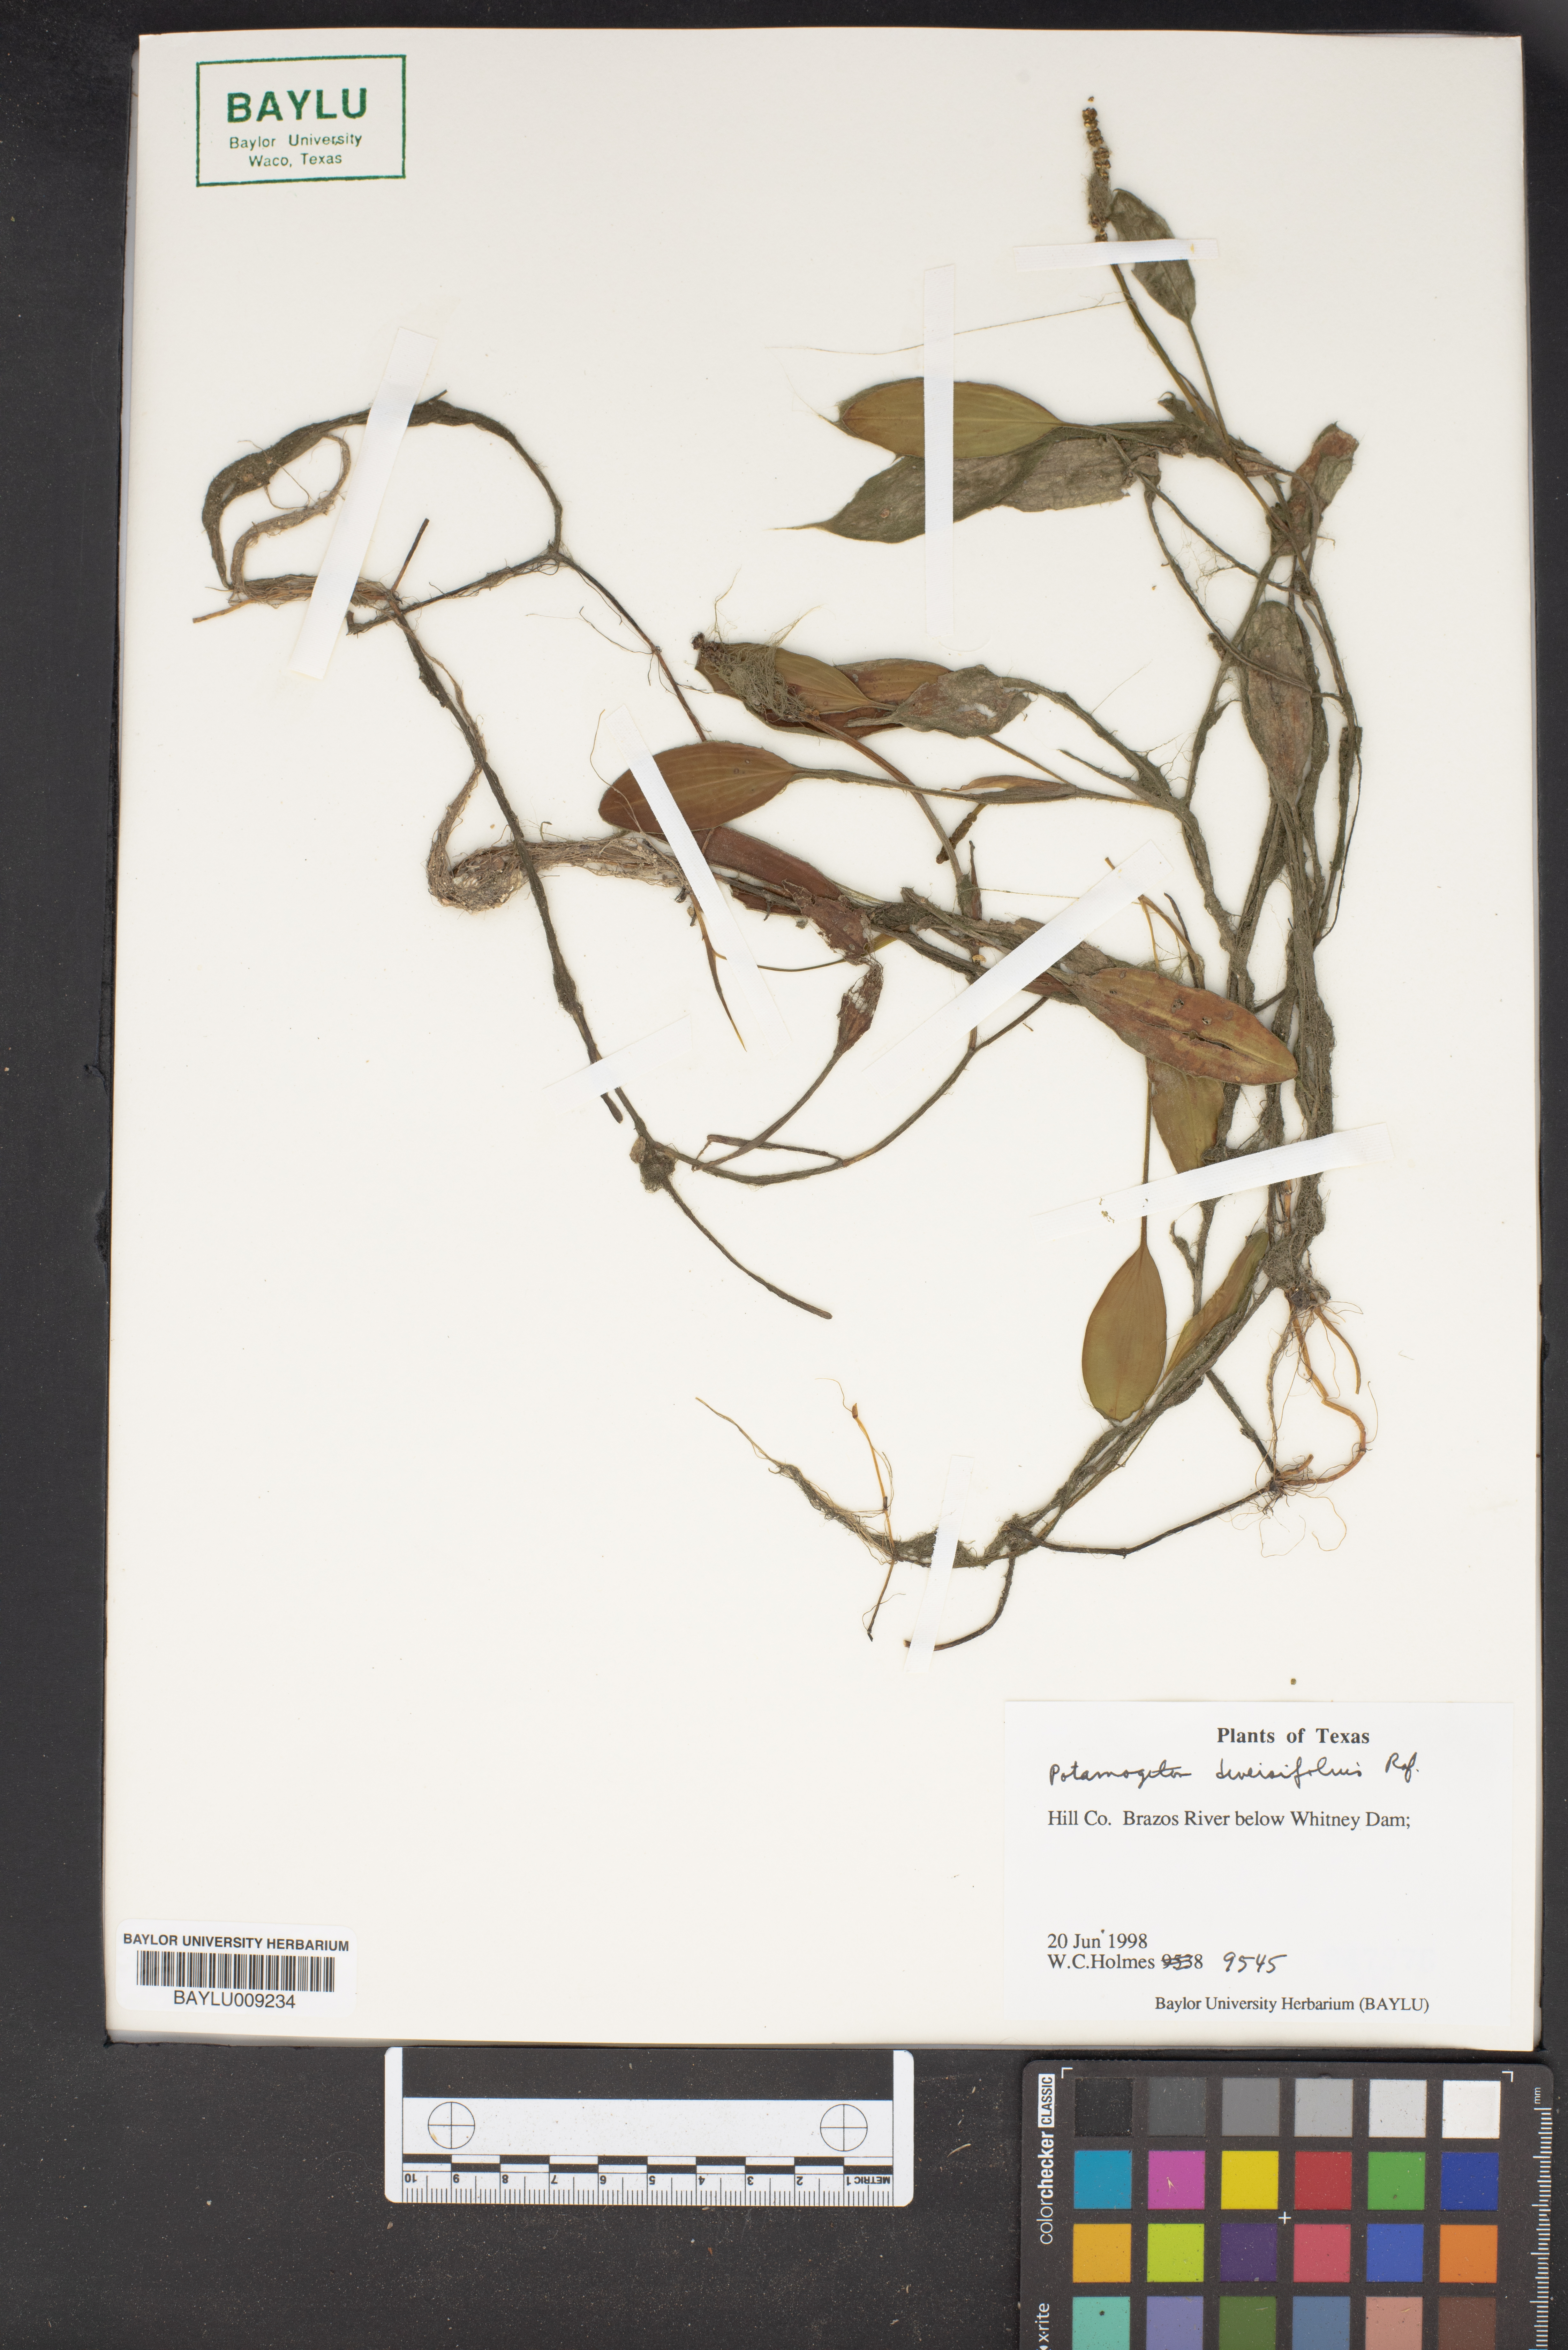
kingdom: Plantae
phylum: Tracheophyta
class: Liliopsida
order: Alismatales
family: Potamogetonaceae
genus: Potamogeton
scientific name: Potamogeton diversifolius
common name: Water-thread pondweed
